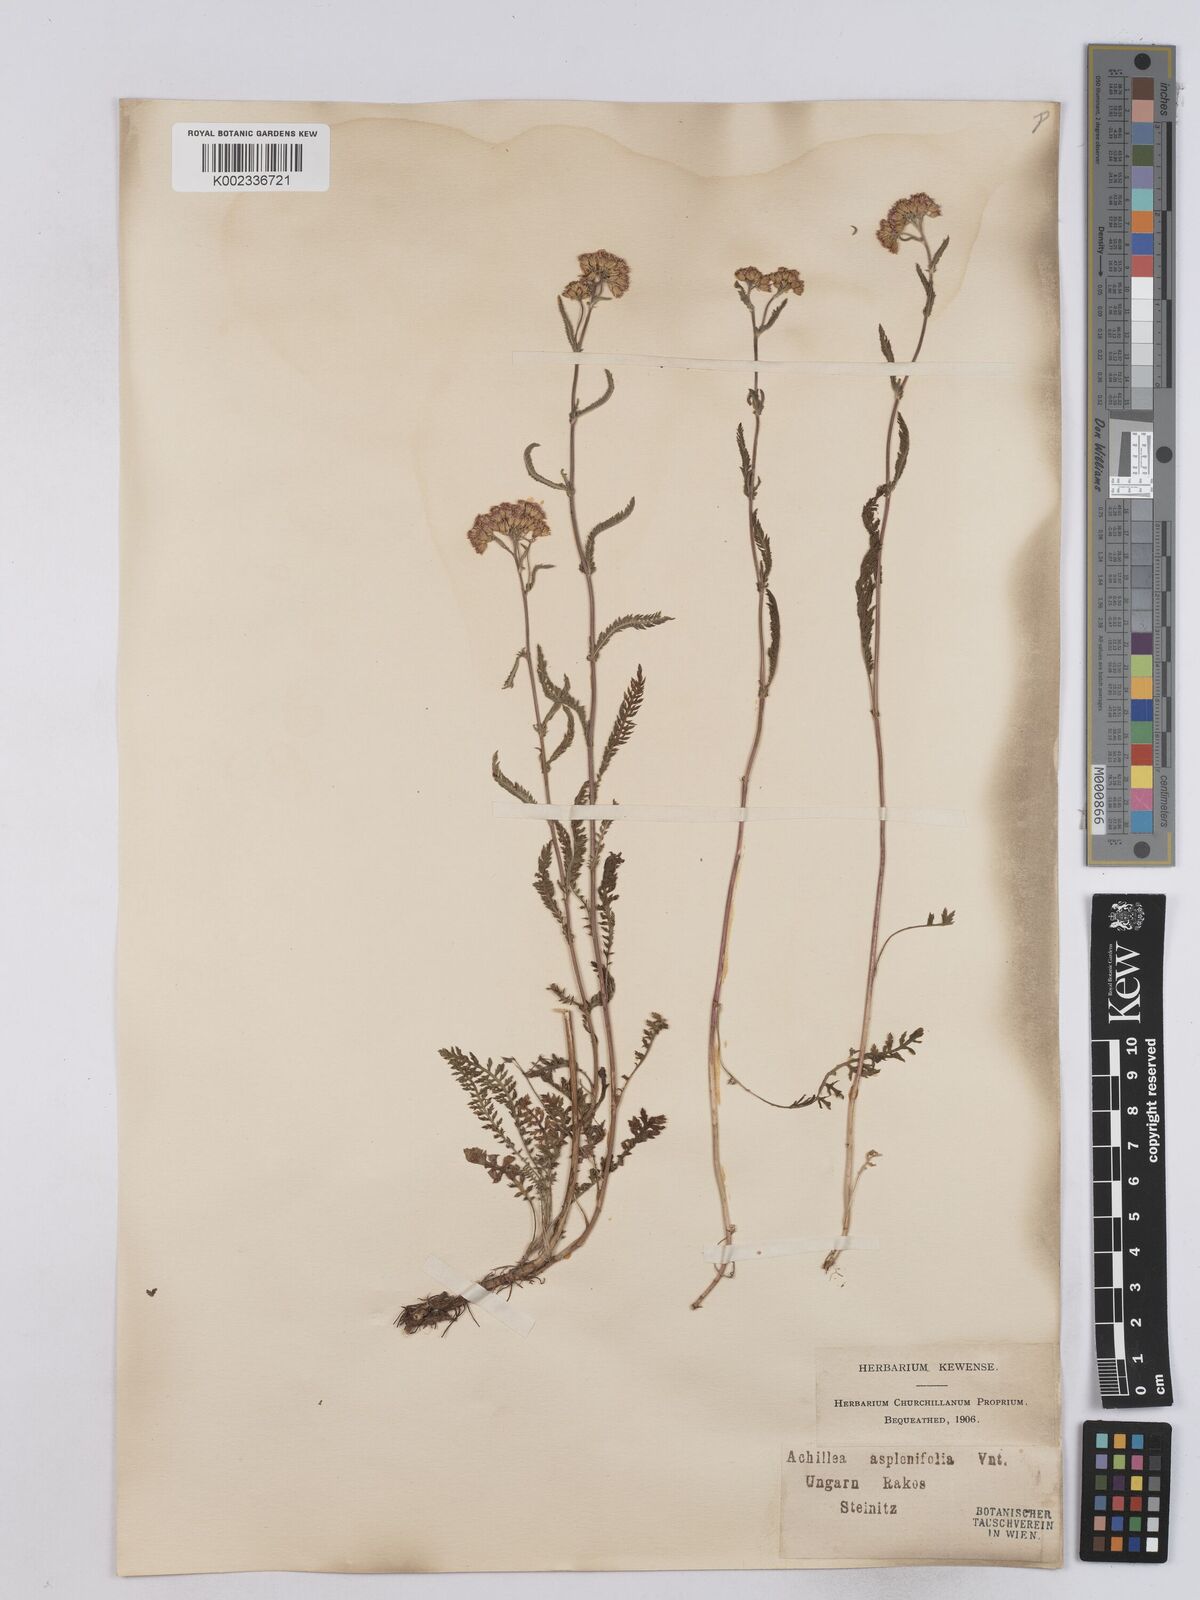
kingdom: Plantae
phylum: Tracheophyta
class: Magnoliopsida
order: Asterales
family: Asteraceae
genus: Achillea
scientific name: Achillea aspleniifolia
